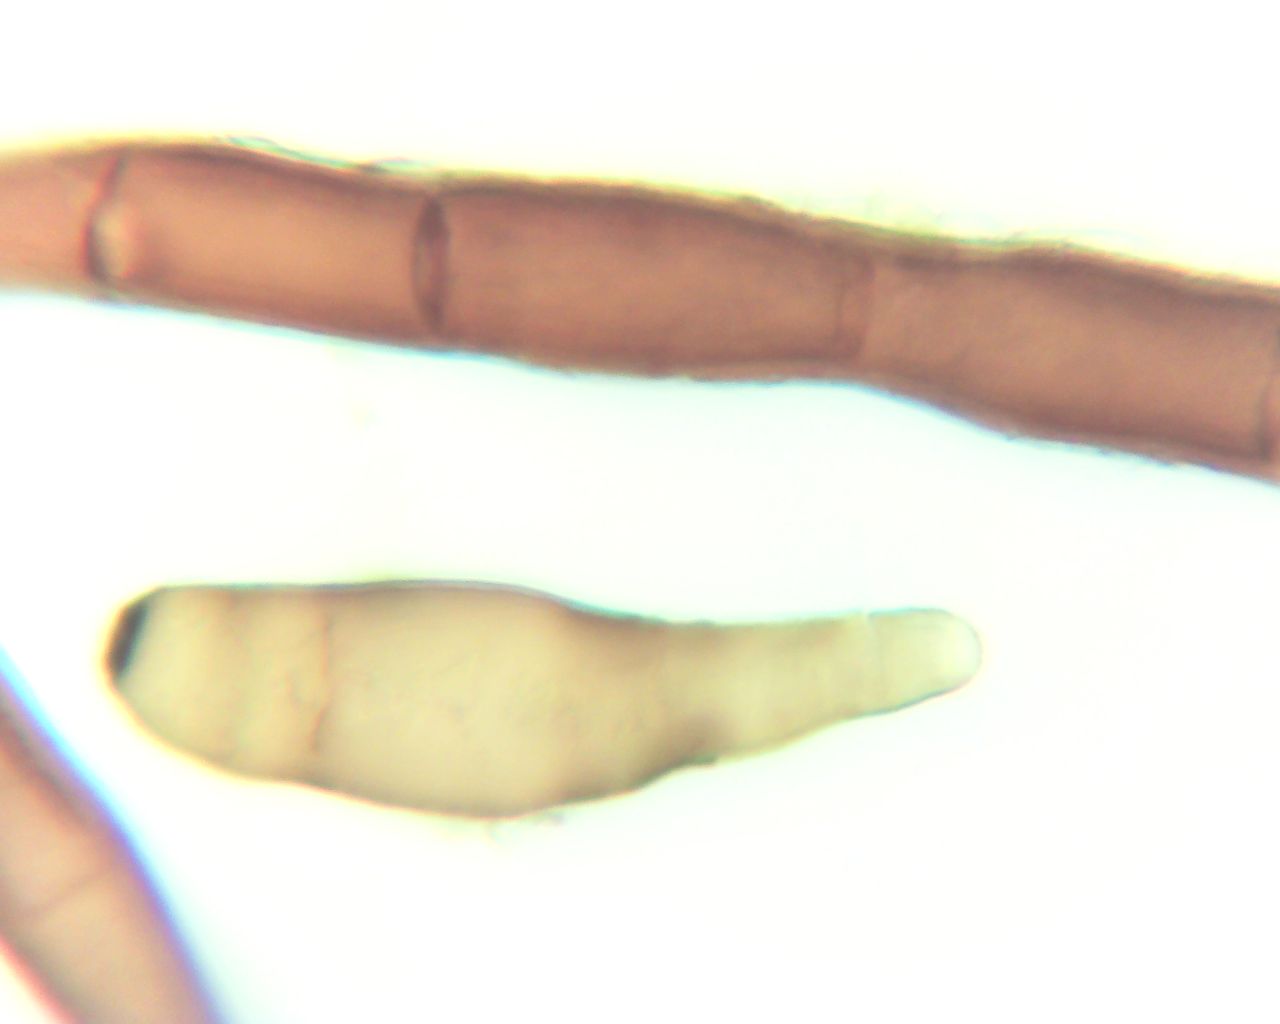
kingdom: Fungi
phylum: Ascomycota
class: Dothideomycetes
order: Pleosporales
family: Massarinaceae
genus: Helminthosporium
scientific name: Helminthosporium
